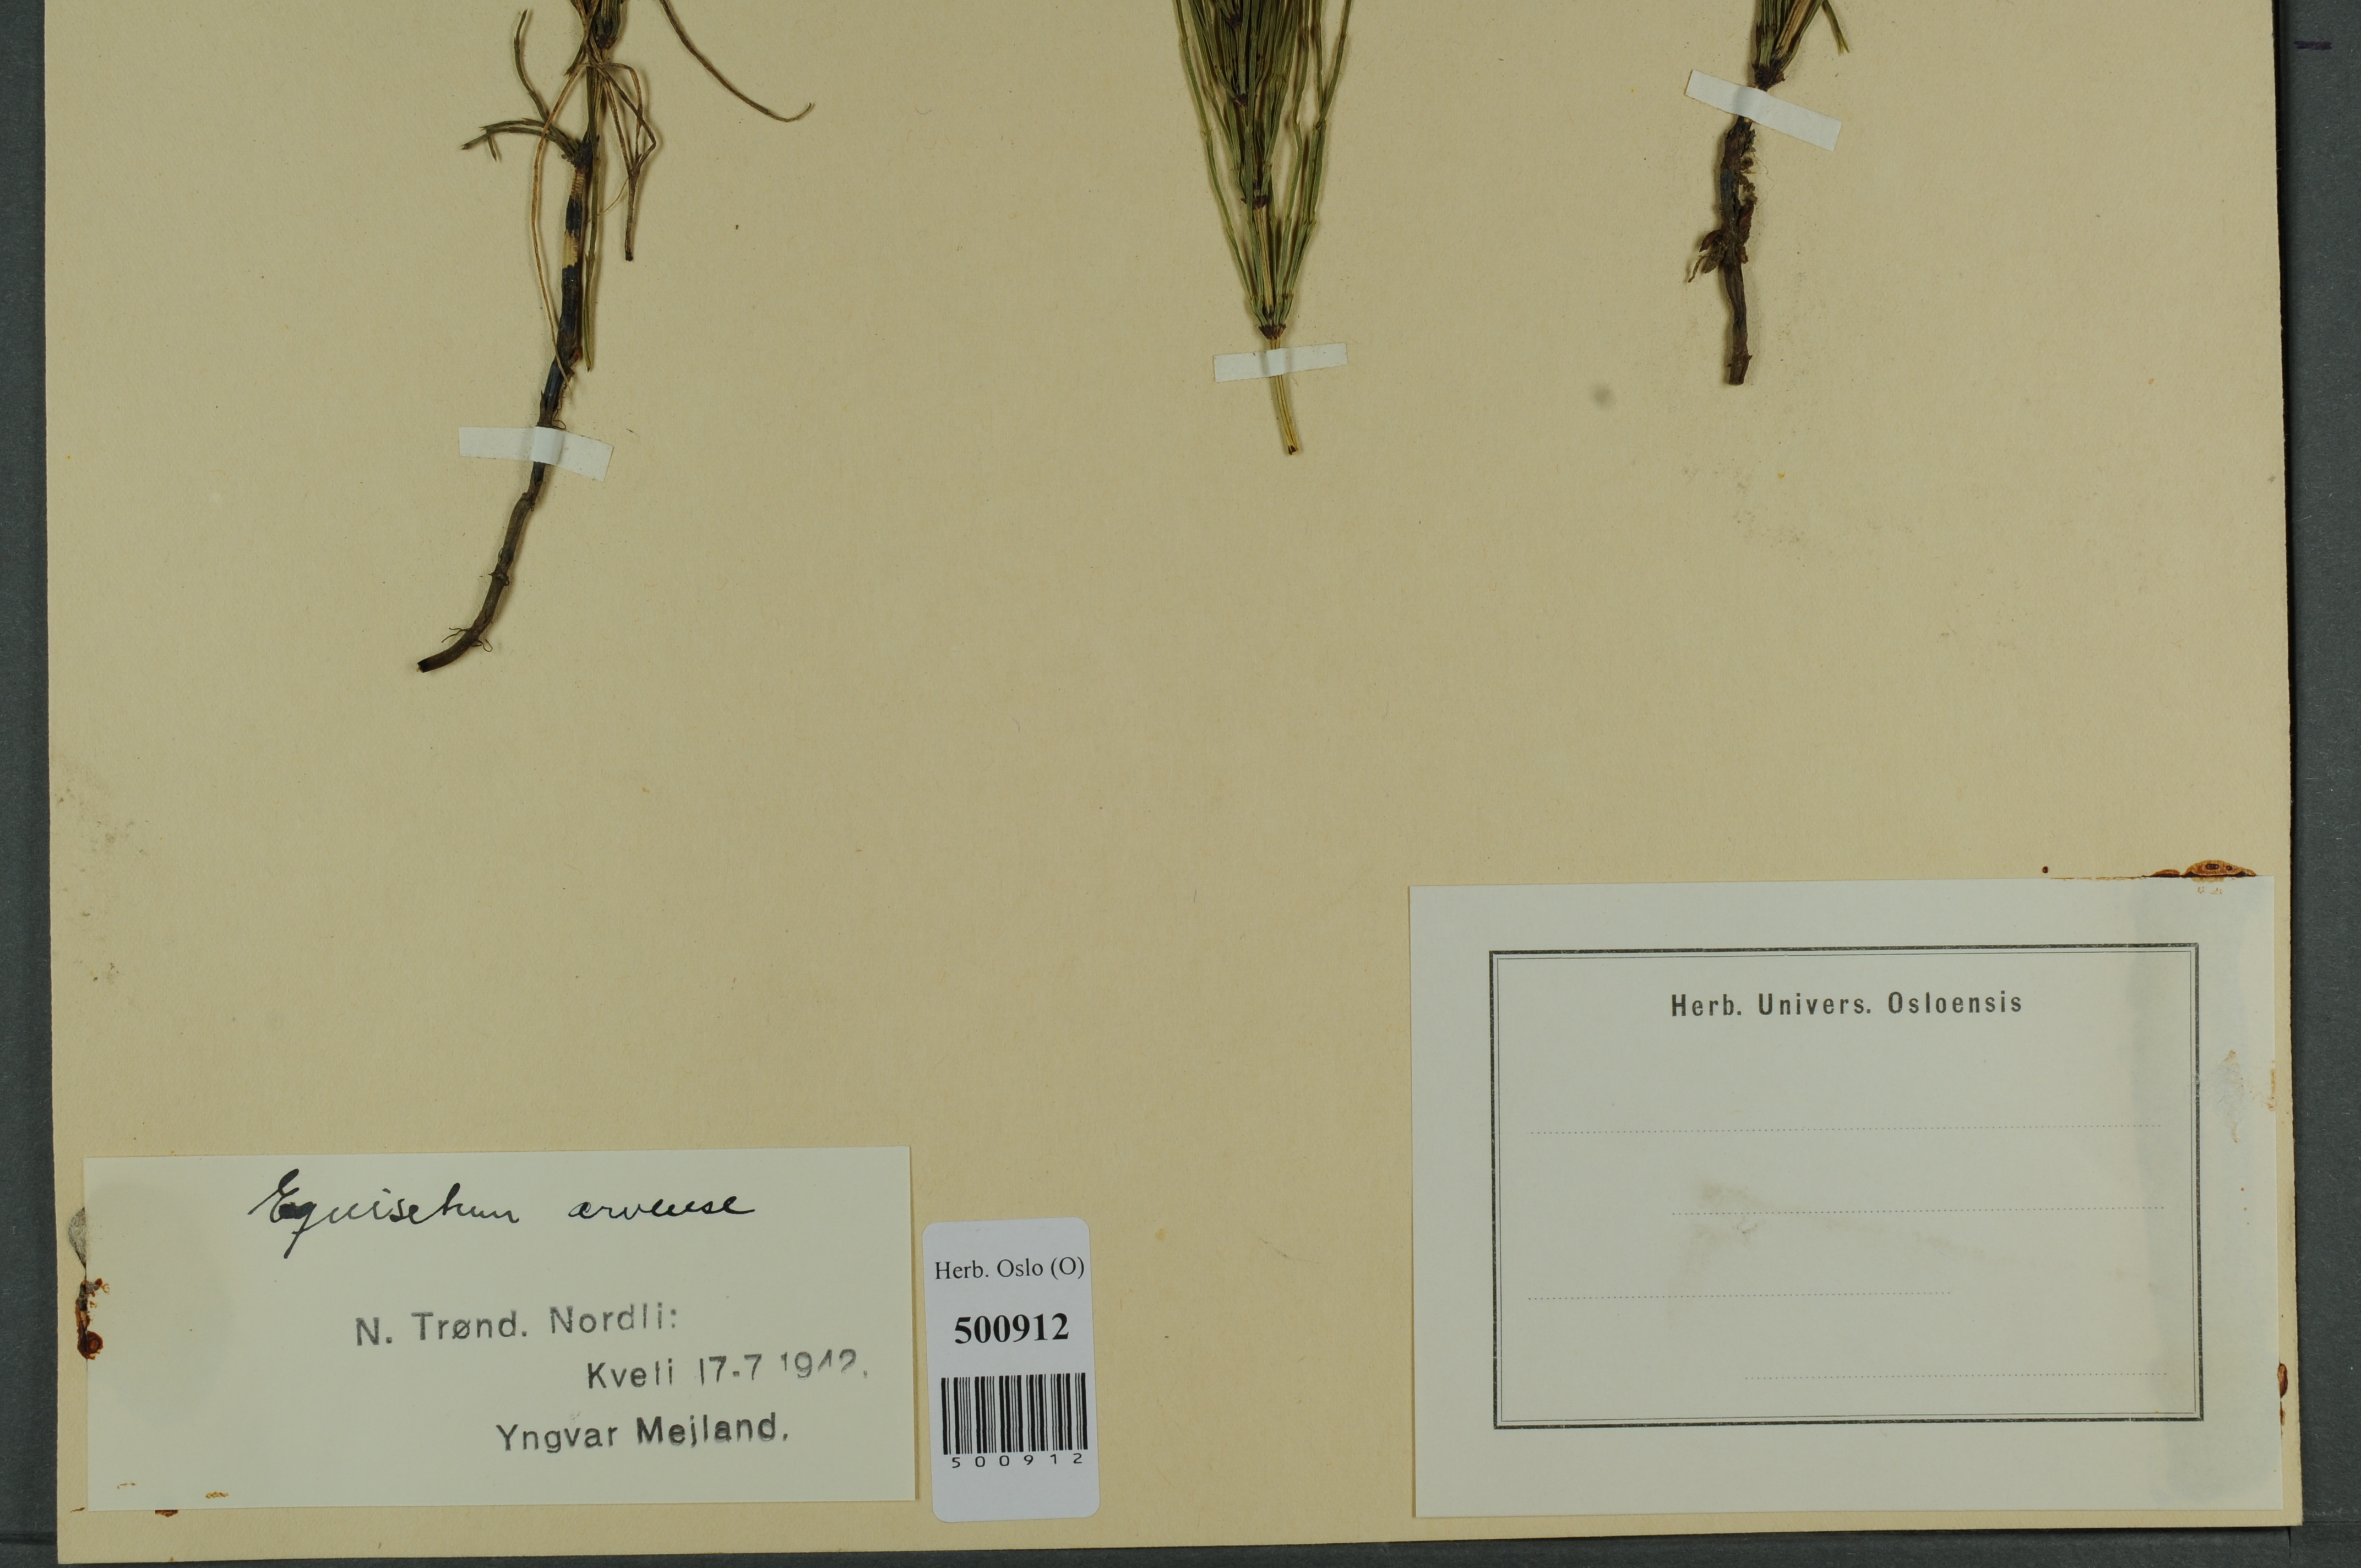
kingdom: Plantae
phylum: Tracheophyta
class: Polypodiopsida
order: Equisetales
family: Equisetaceae
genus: Equisetum
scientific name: Equisetum arvense
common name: Field horsetail
